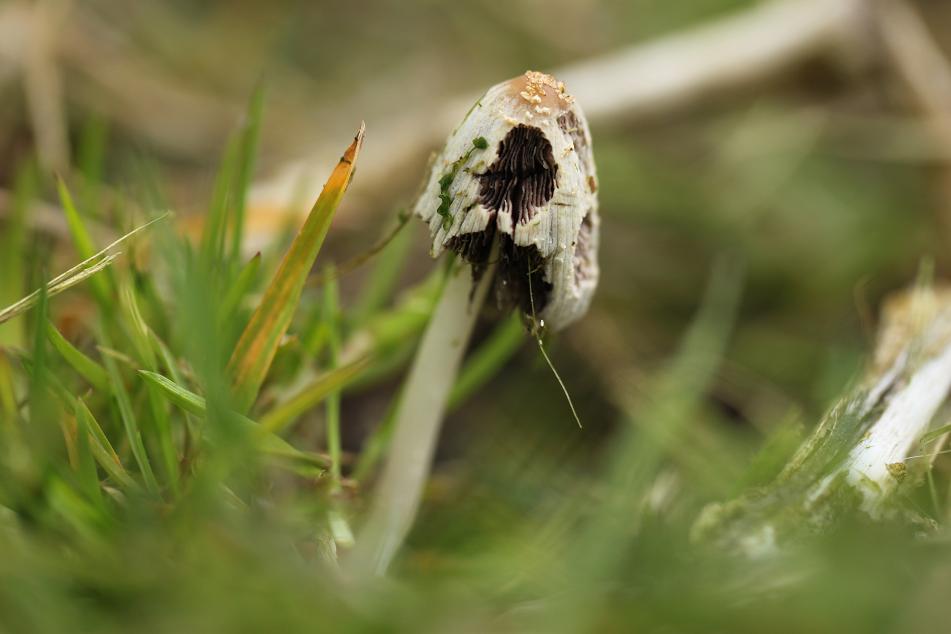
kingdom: Fungi
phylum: Basidiomycota
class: Agaricomycetes
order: Agaricales
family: Psathyrellaceae
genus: Coprinellus
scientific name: Coprinellus radians
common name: grynet blækhat
